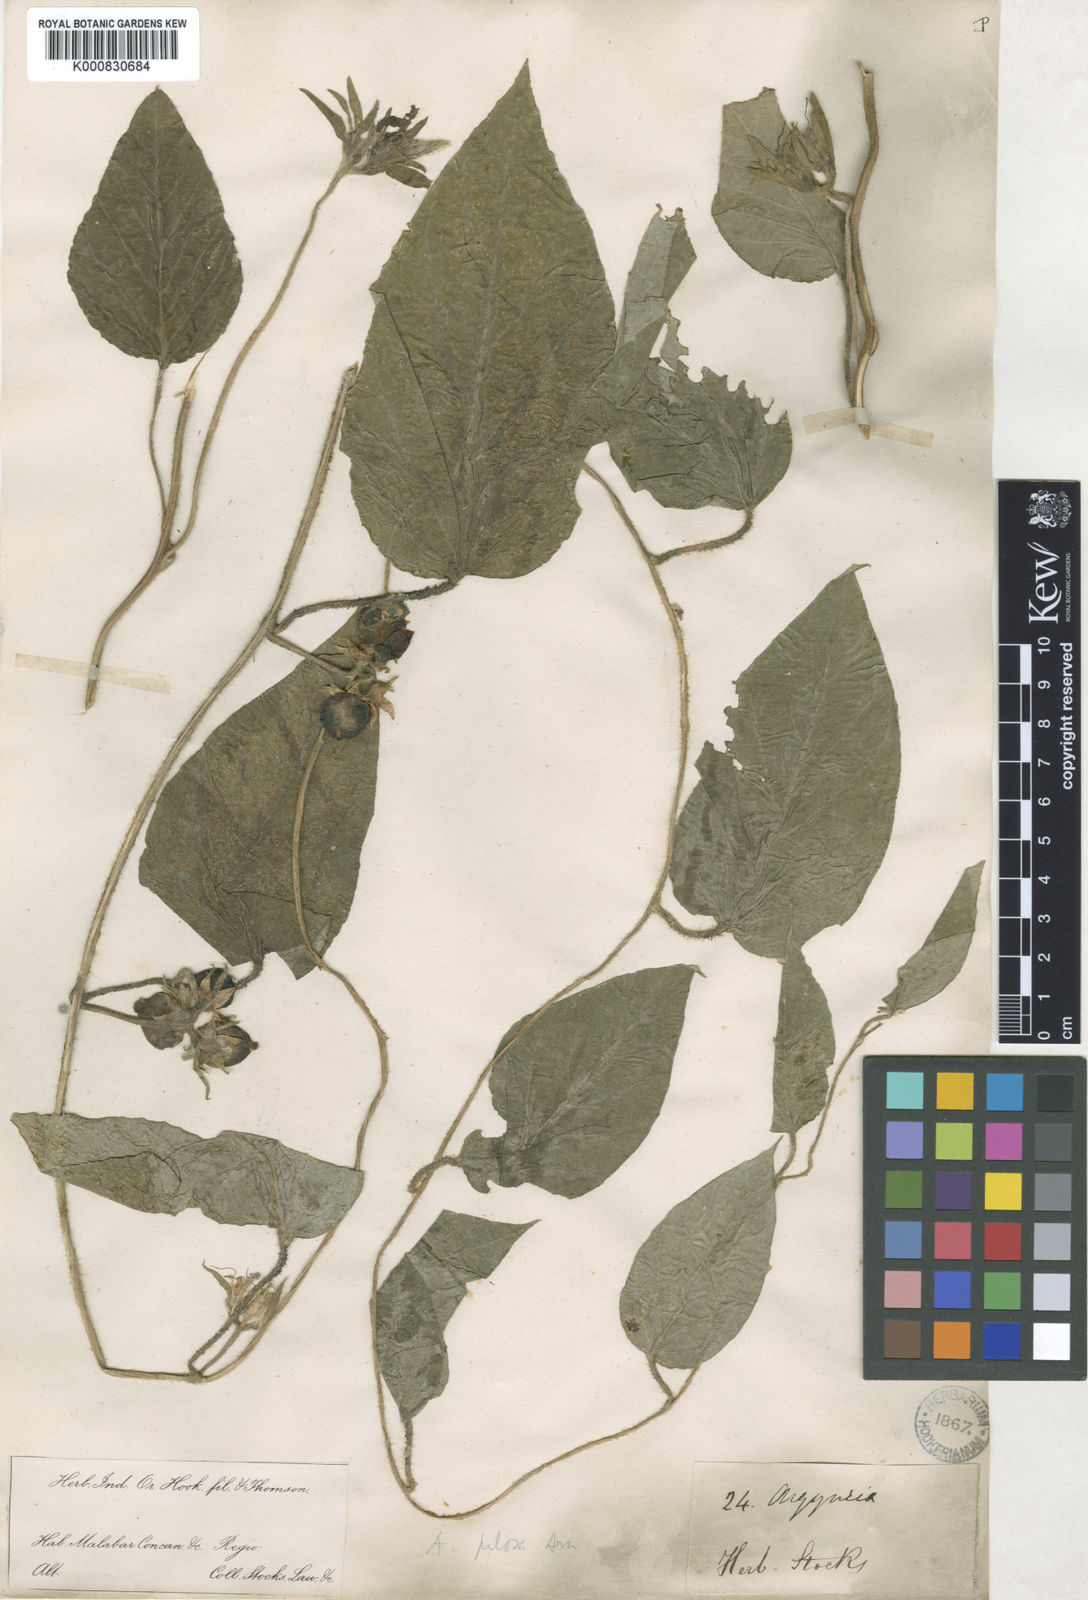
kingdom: Plantae
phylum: Tracheophyta
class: Magnoliopsida
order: Solanales
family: Convolvulaceae
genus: Argyreia
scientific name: Argyreia srinivasanii
